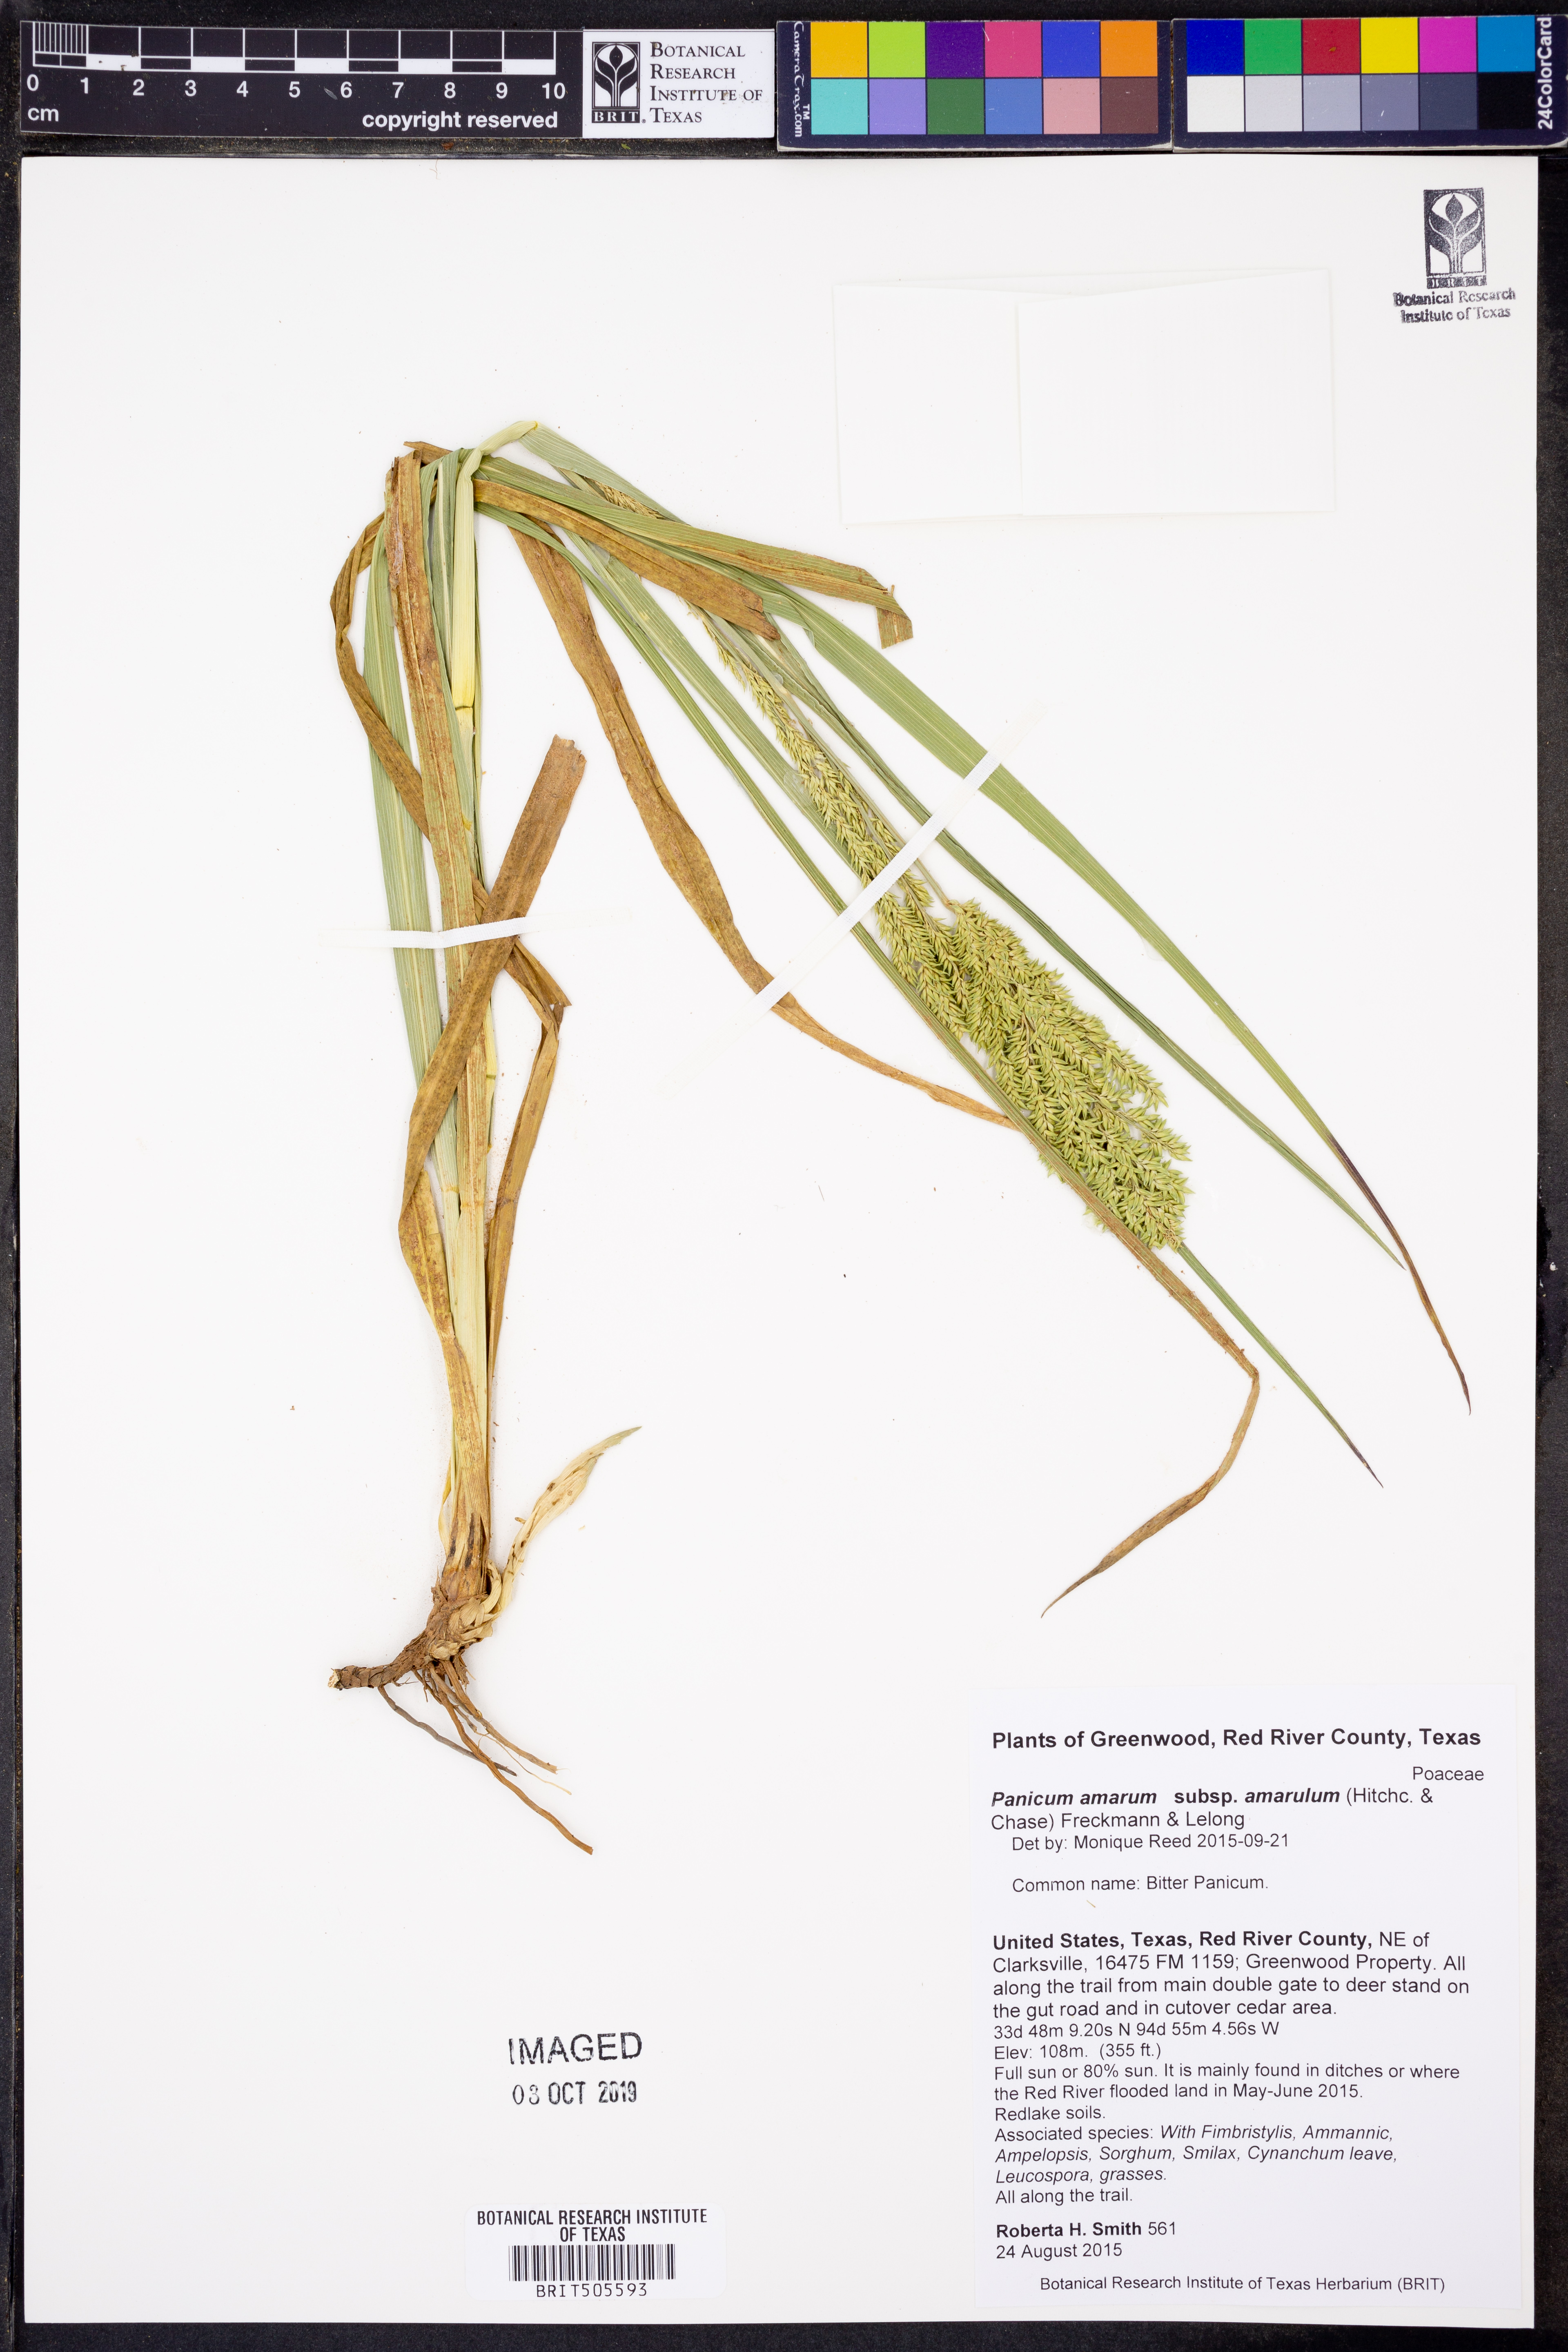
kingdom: Plantae
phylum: Tracheophyta
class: Liliopsida
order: Poales
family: Poaceae
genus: Panicum
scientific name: Panicum amarum
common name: Bitter panicum
